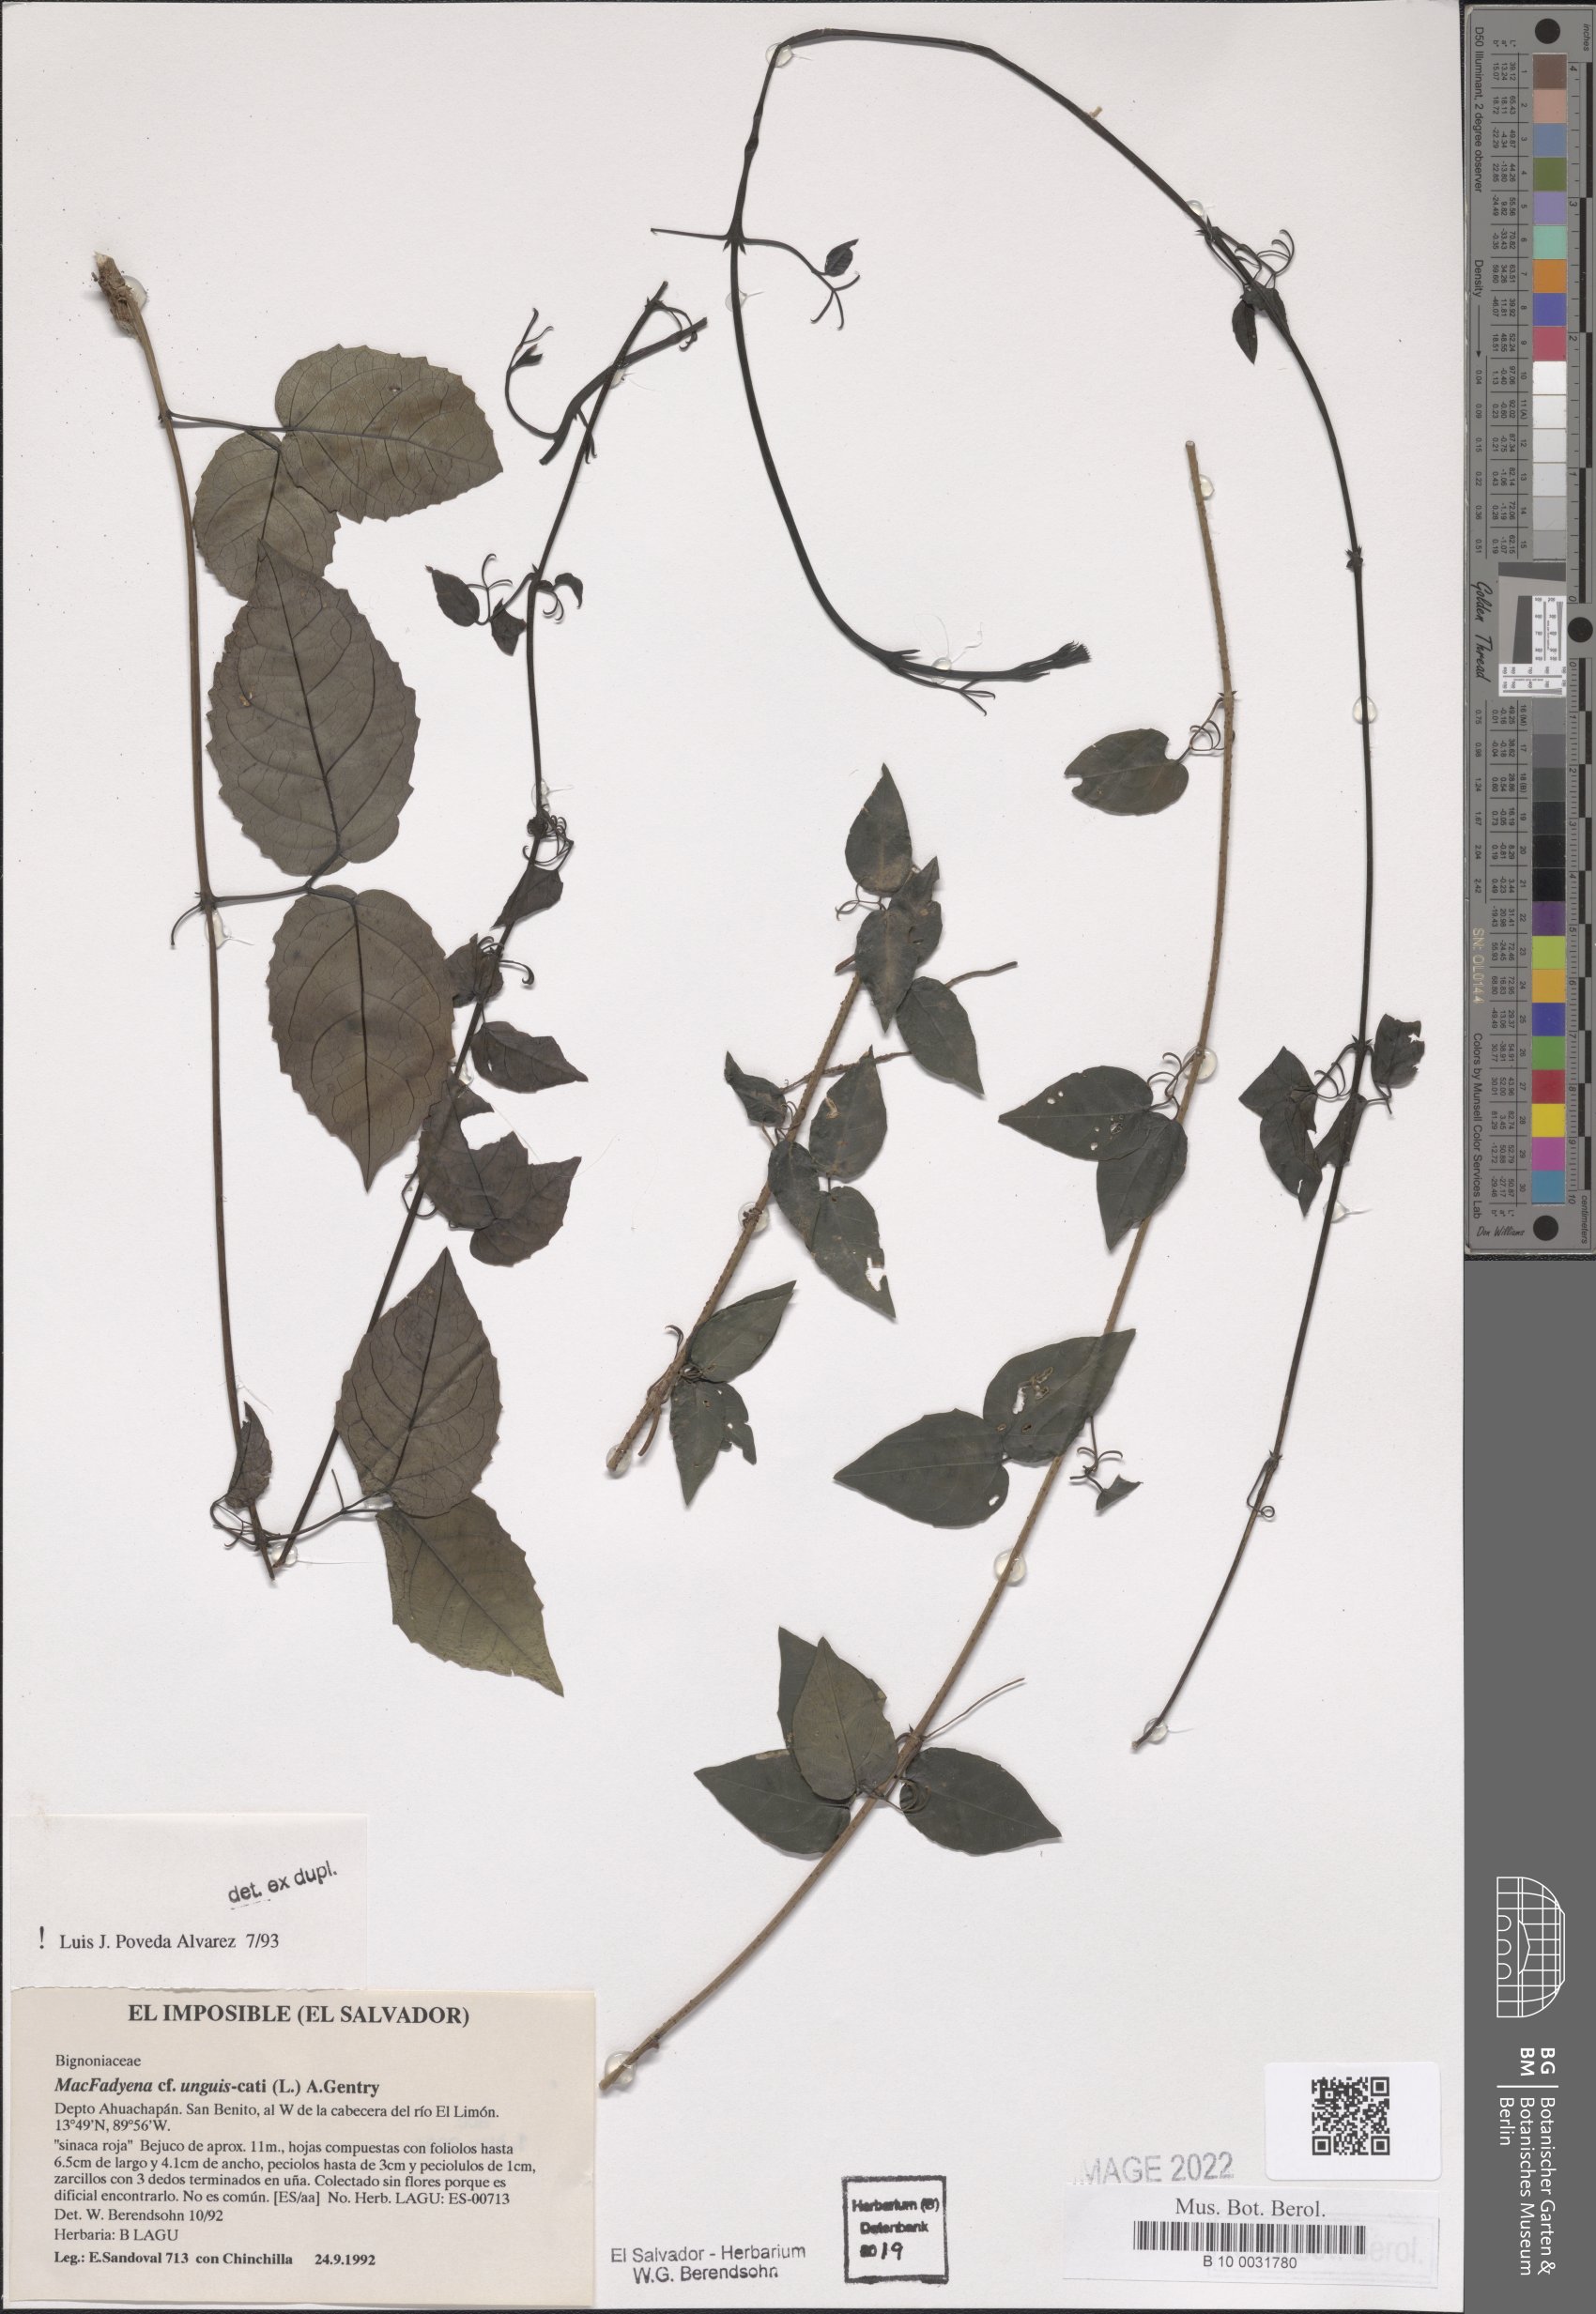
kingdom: Plantae
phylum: Tracheophyta
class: Magnoliopsida
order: Lamiales
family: Bignoniaceae
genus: Dolichandra
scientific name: Dolichandra unguis-cati
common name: Catclaw vine
